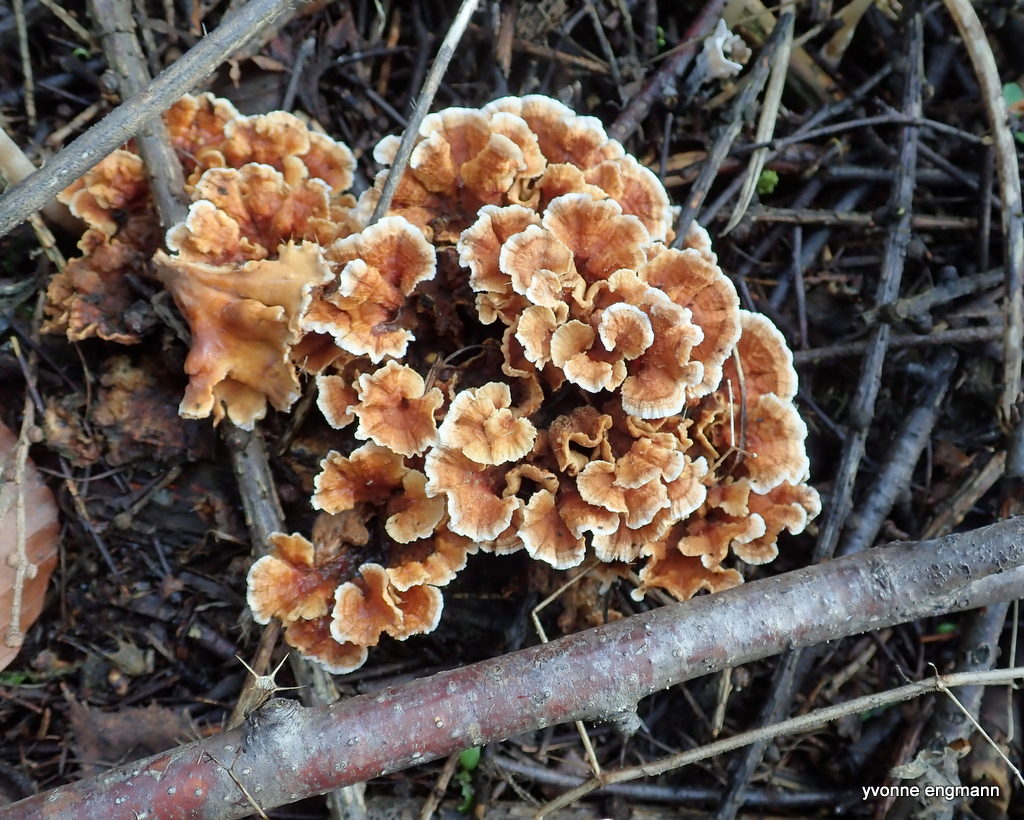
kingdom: Fungi
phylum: Basidiomycota
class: Agaricomycetes
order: Russulales
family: Stereaceae
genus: Stereum
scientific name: Stereum hirsutum
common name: håret lædersvamp
